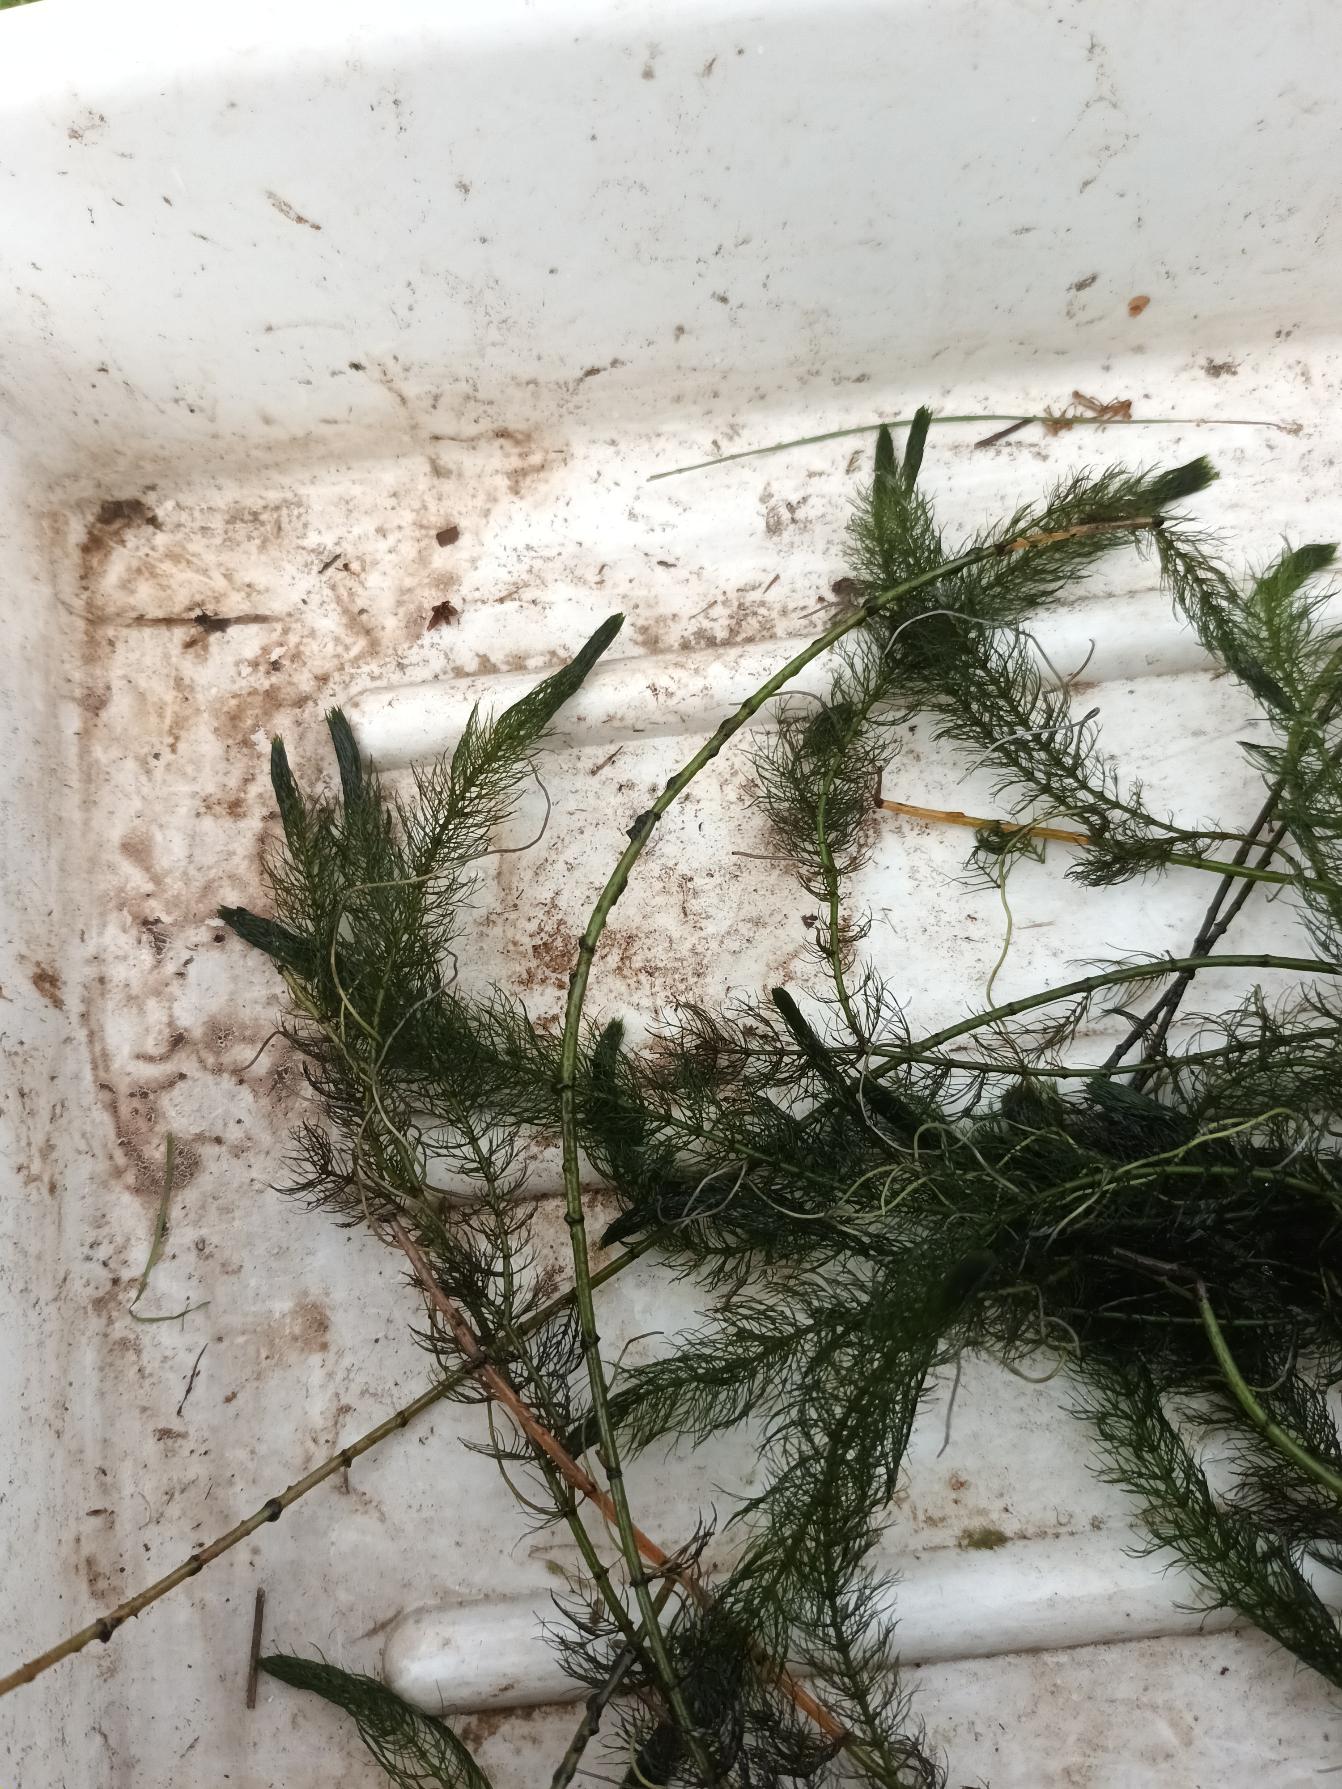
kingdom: Plantae
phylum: Tracheophyta
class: Magnoliopsida
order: Saxifragales
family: Haloragaceae
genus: Myriophyllum
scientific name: Myriophyllum alterniflorum
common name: Hår-tusindblad
